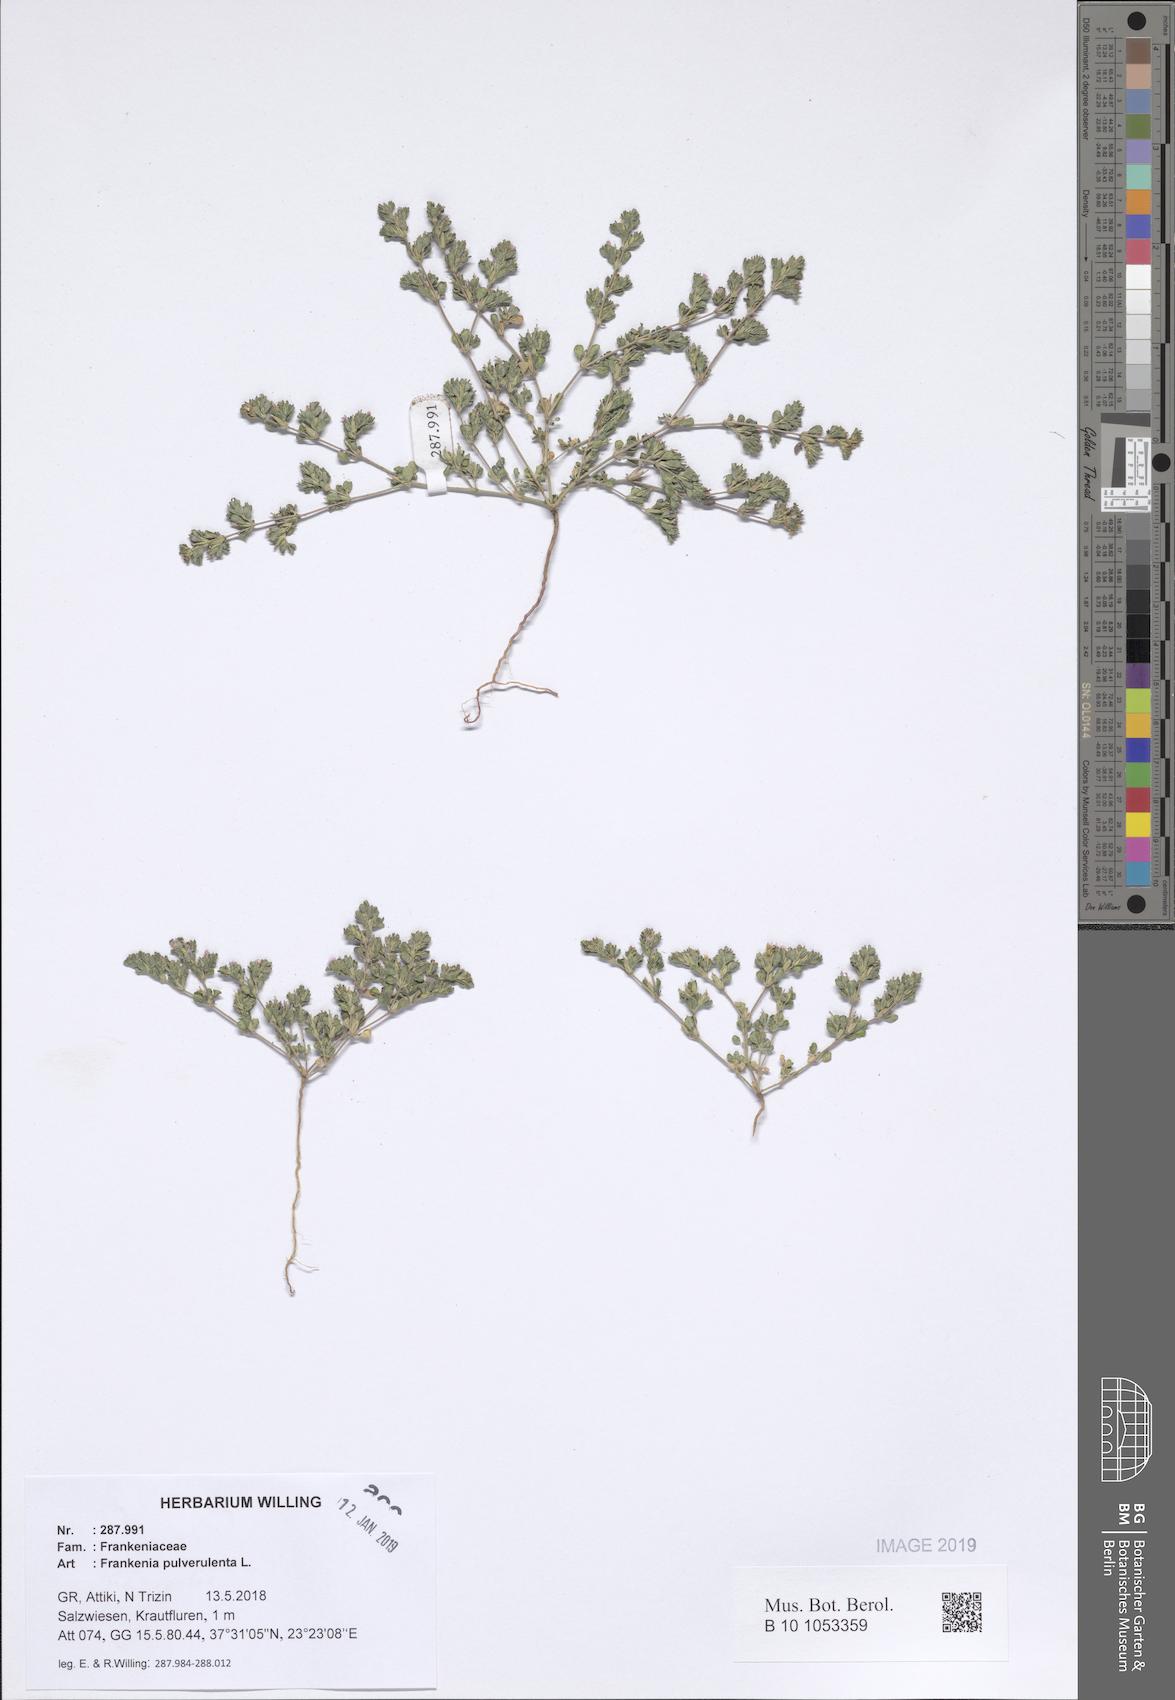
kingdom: Plantae
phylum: Tracheophyta
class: Magnoliopsida
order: Caryophyllales
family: Frankeniaceae
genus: Frankenia
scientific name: Frankenia pulverulenta
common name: European seaheath
